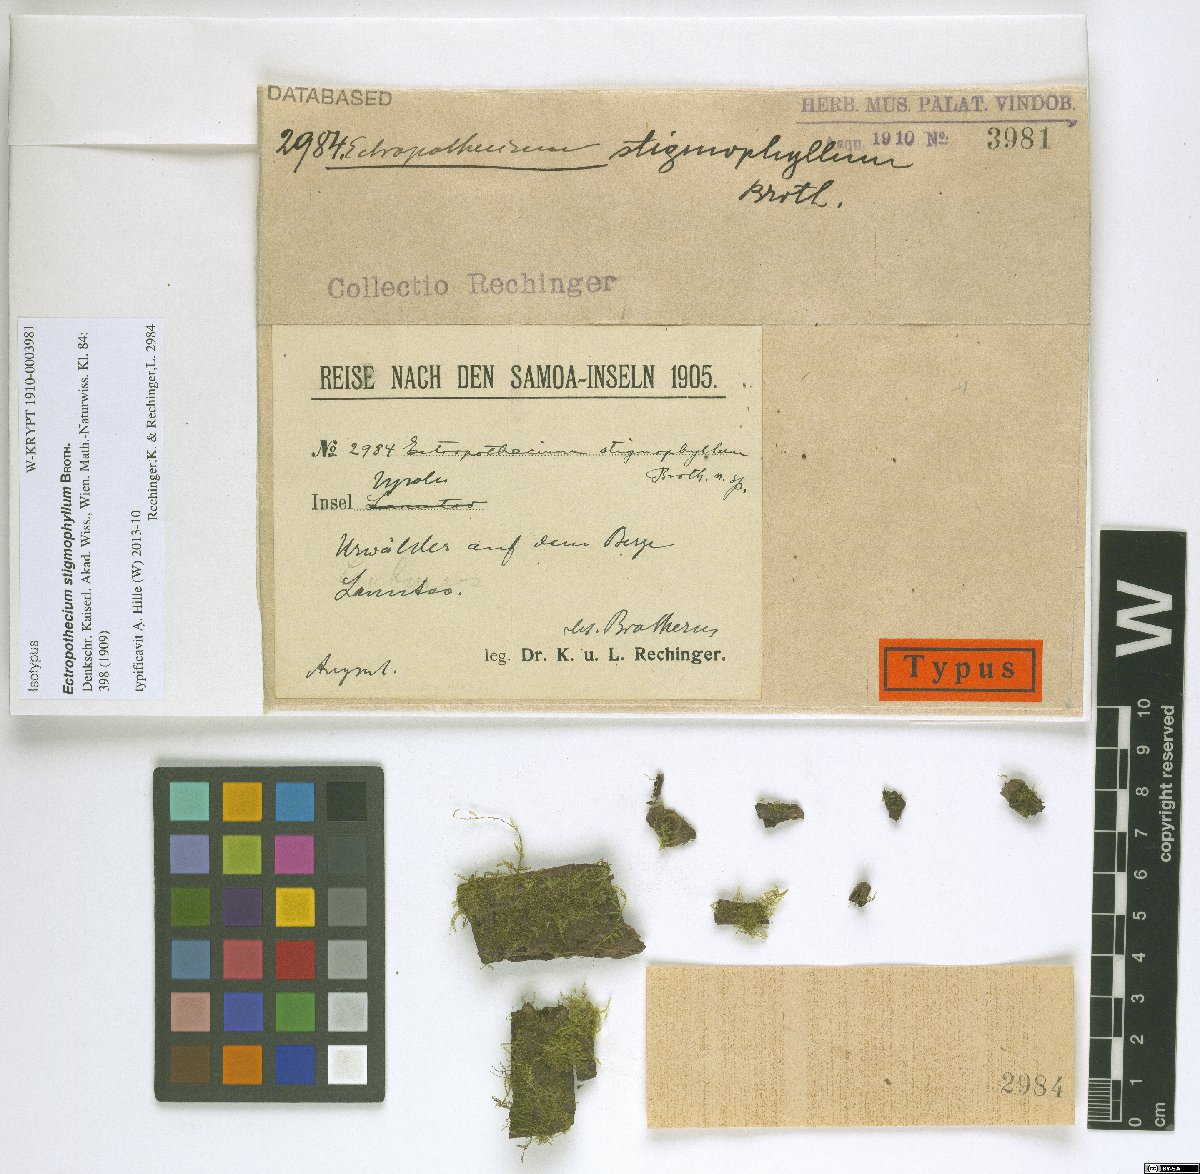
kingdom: Plantae
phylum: Bryophyta
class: Bryopsida
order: Hypnales
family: Hypnaceae
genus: Ectropothecium
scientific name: Ectropothecium stigmophyllum
